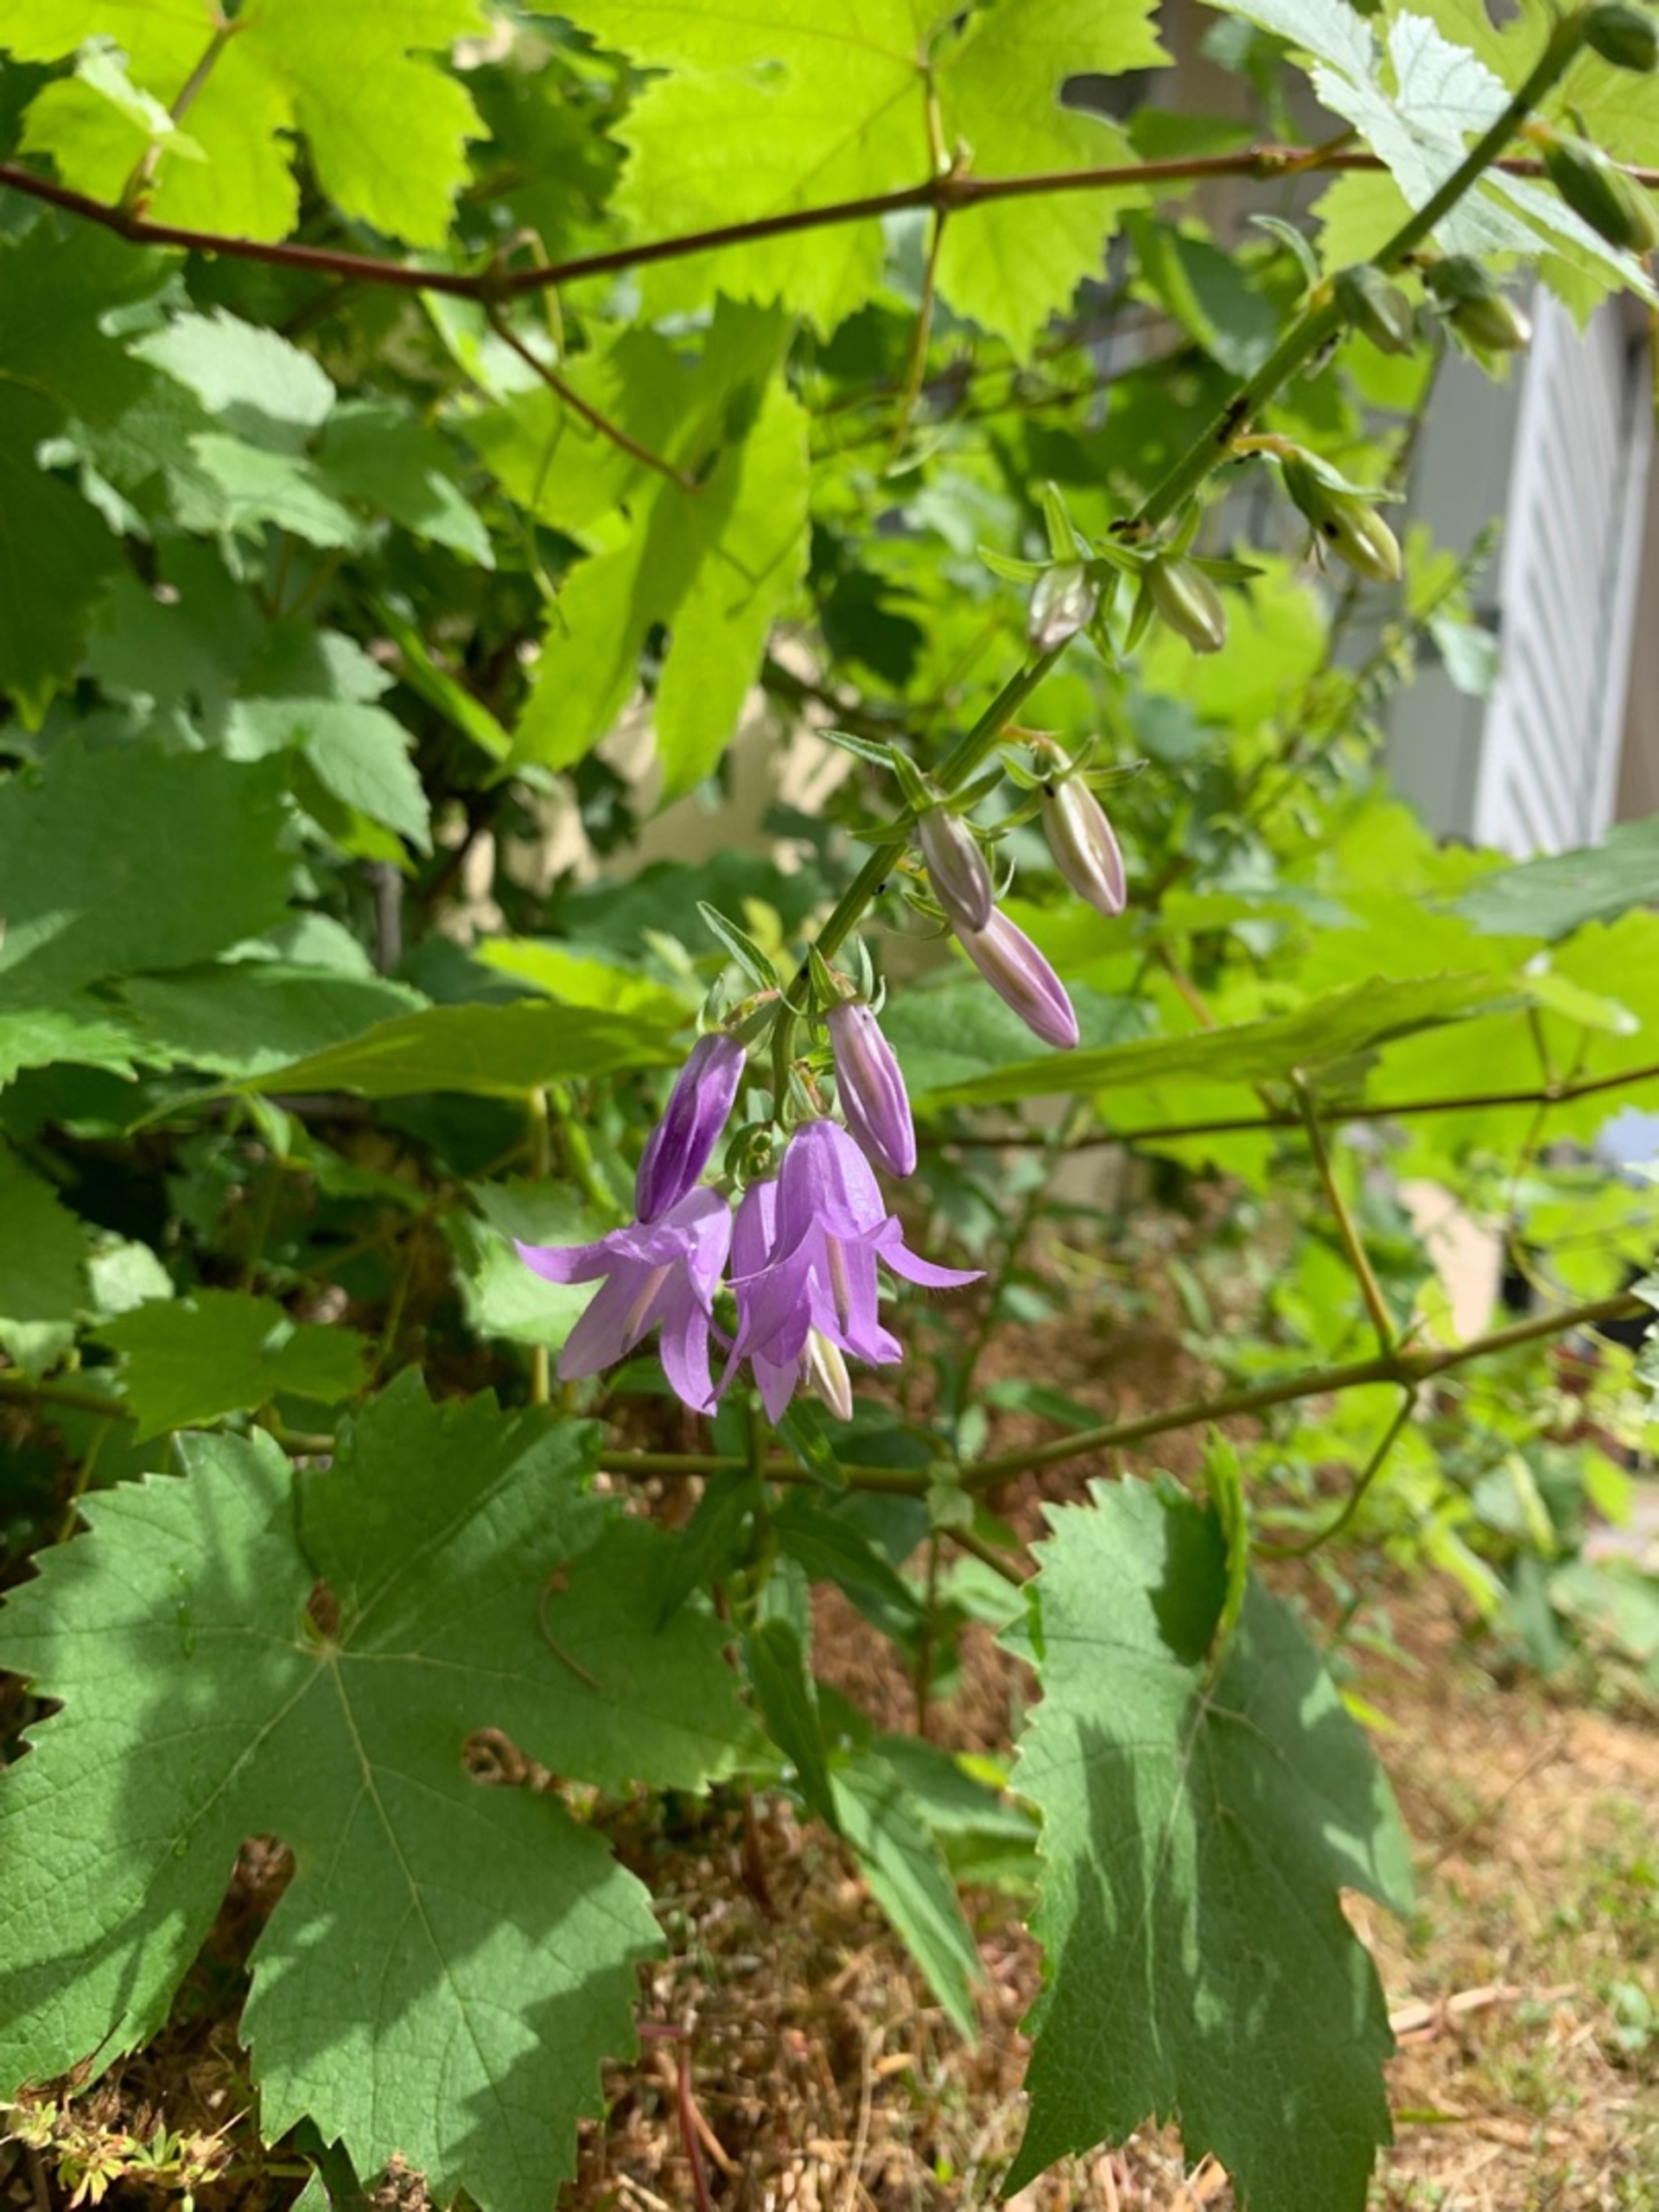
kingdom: Plantae
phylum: Tracheophyta
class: Magnoliopsida
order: Asterales
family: Campanulaceae
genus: Campanula
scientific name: Campanula rapunculoides
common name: Ensidig klokke
